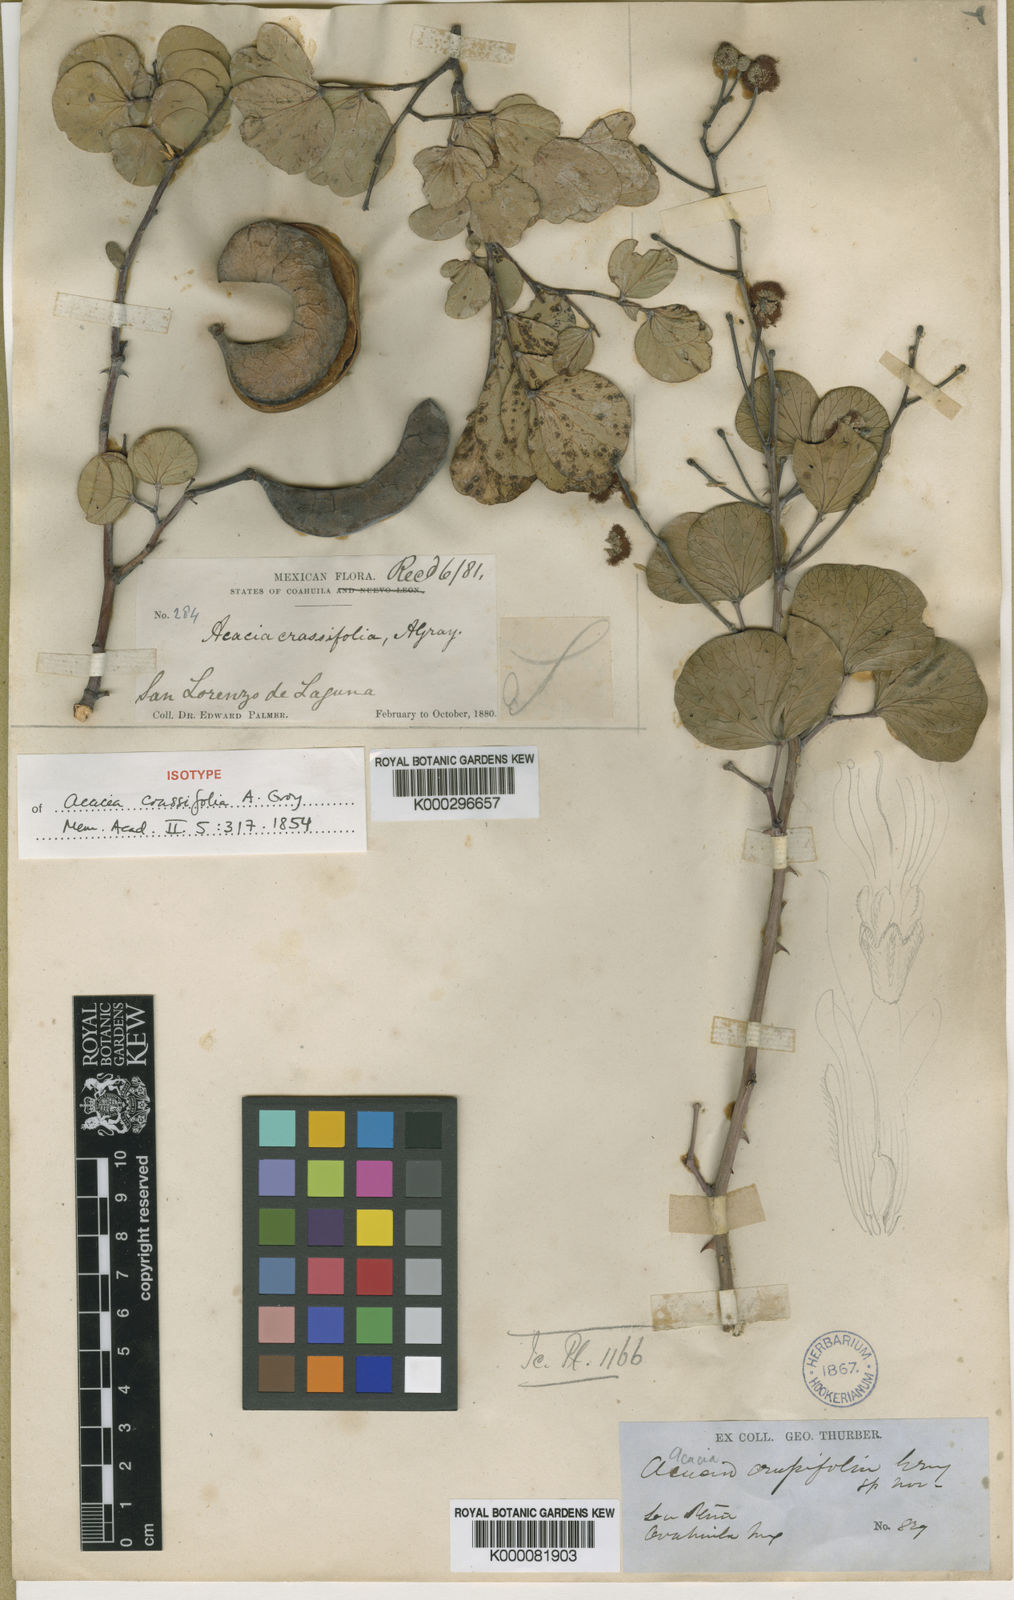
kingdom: Plantae
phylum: Tracheophyta
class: Magnoliopsida
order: Fabales
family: Fabaceae
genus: Senegalia
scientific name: Senegalia crassifolia
